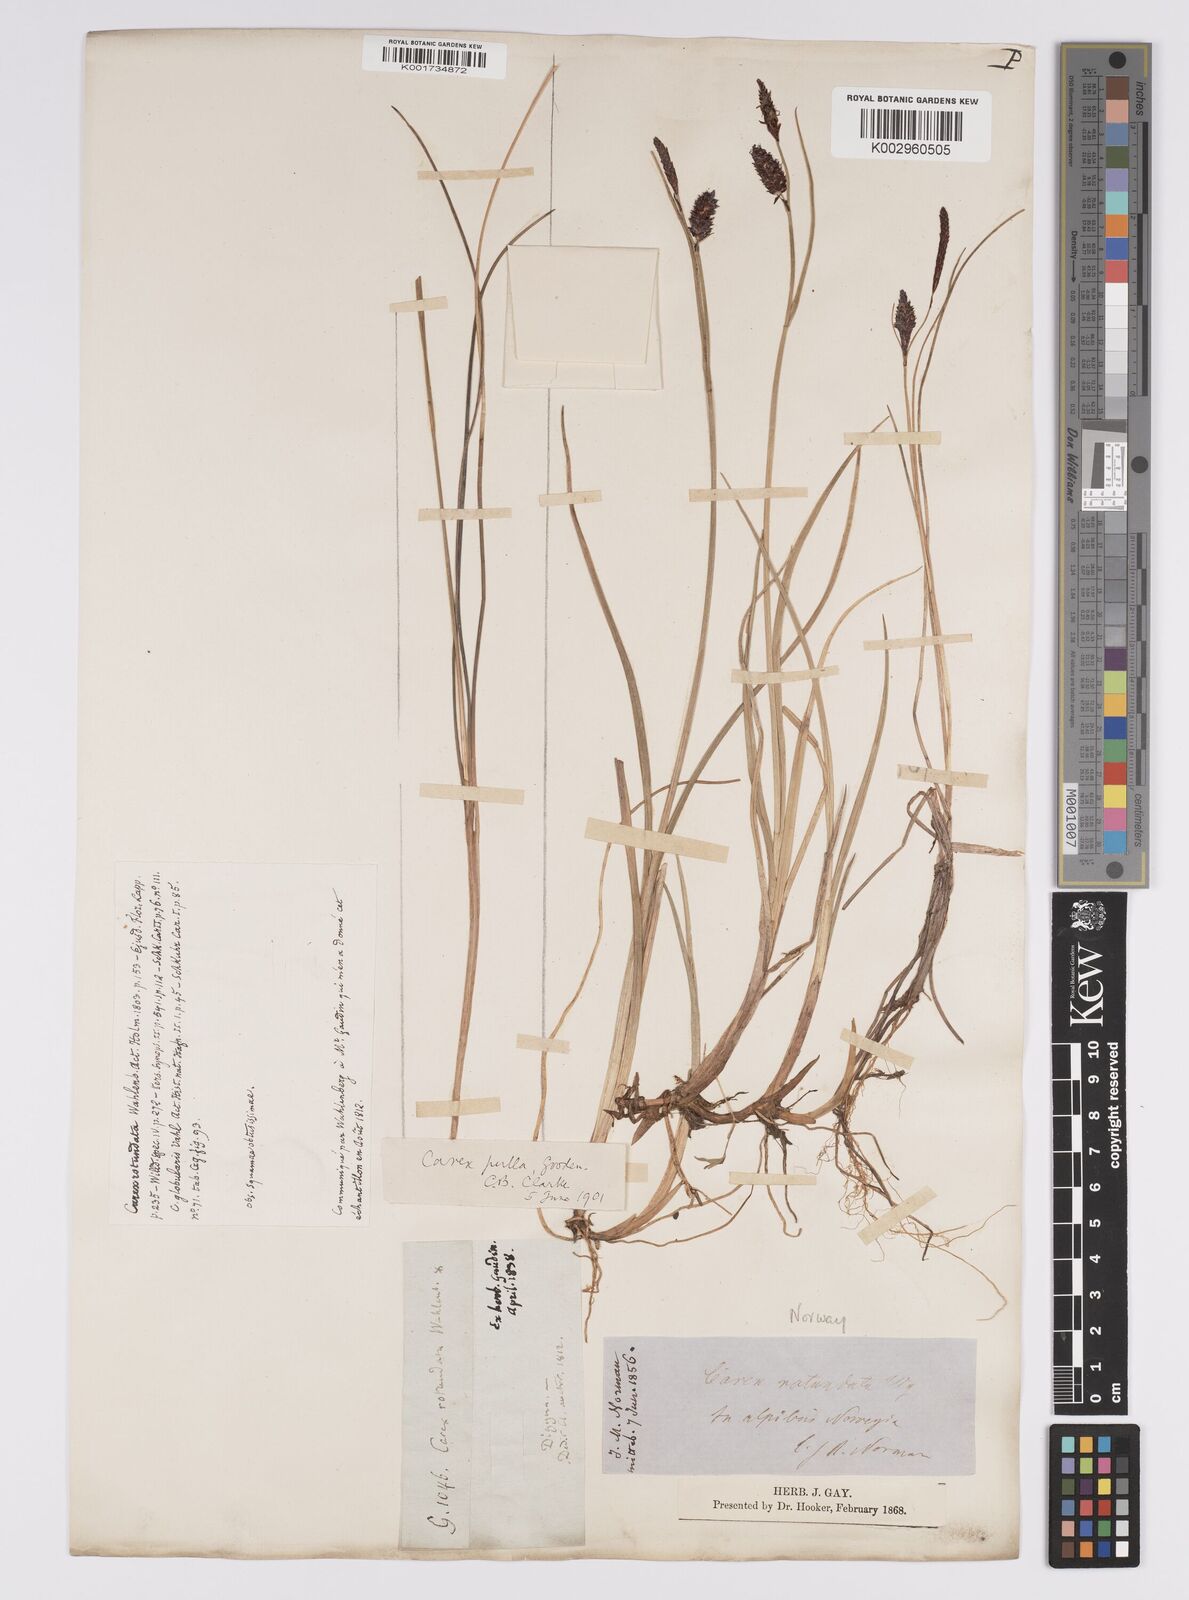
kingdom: Plantae
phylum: Tracheophyta
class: Liliopsida
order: Poales
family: Cyperaceae
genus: Carex
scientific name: Carex saxatilis
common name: Russet sedge
